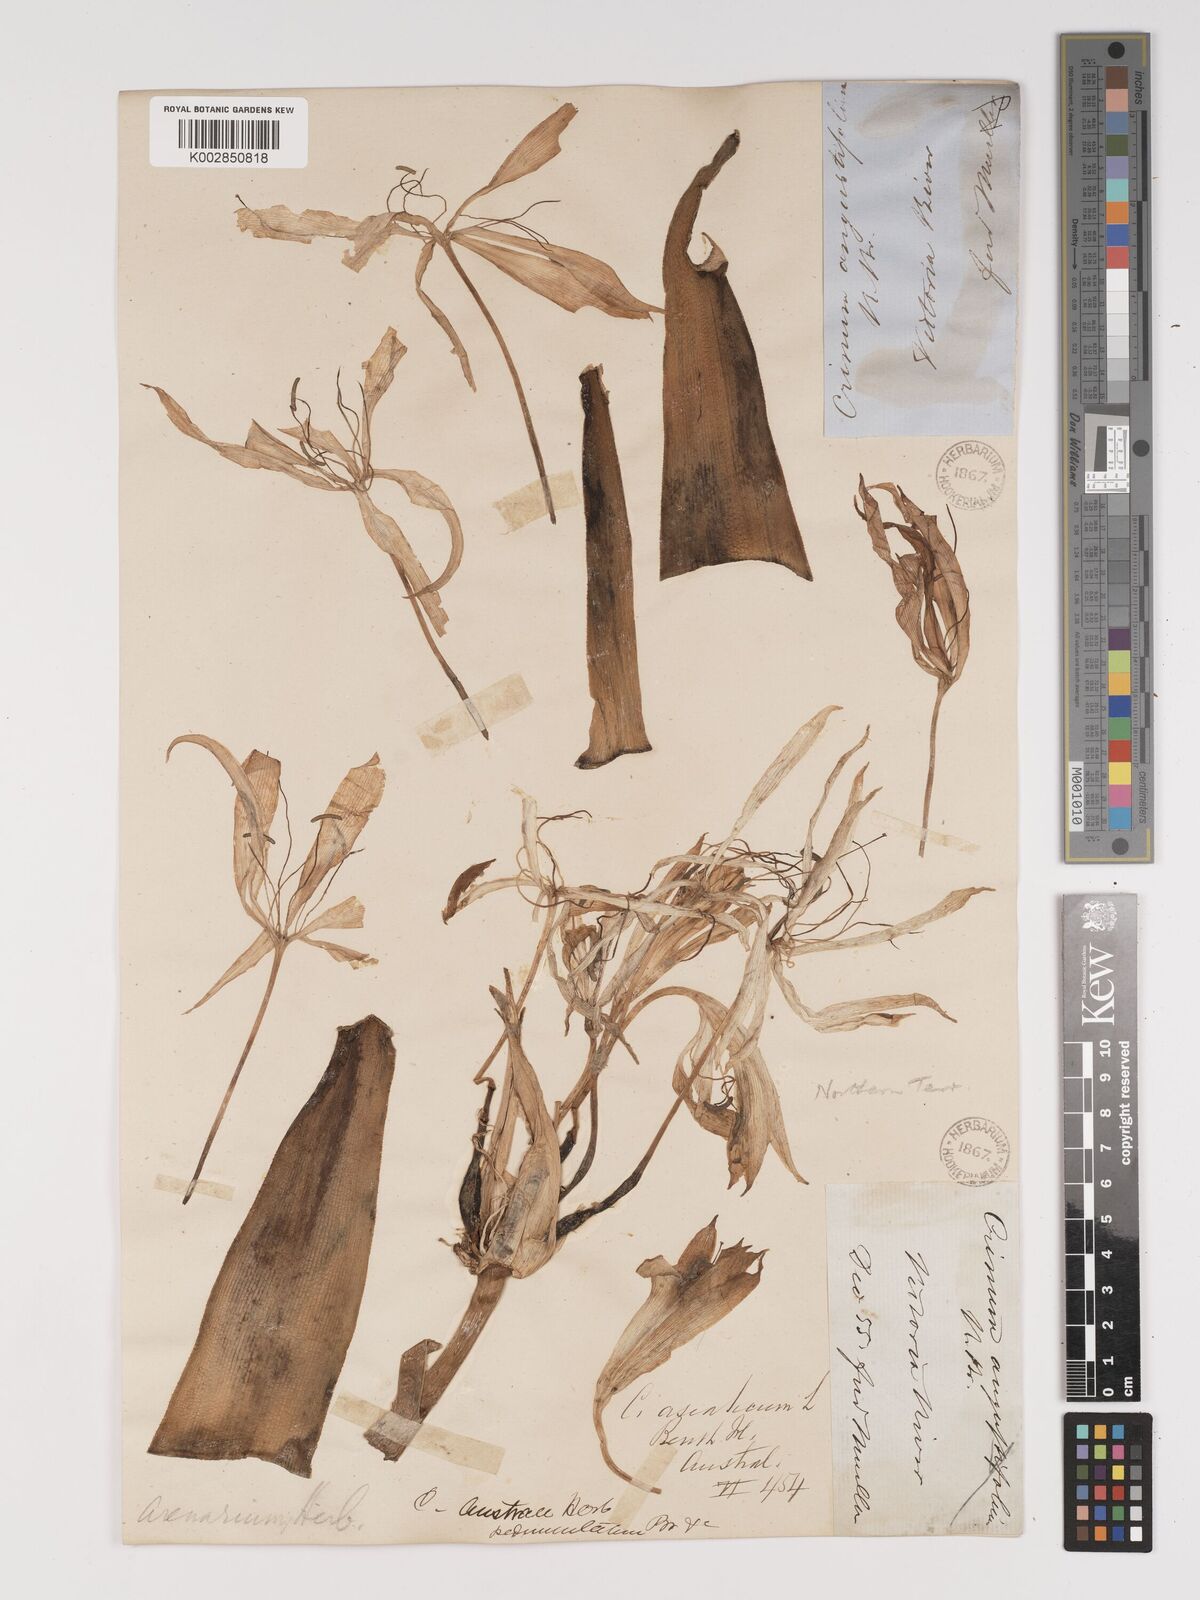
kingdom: Plantae
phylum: Tracheophyta
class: Liliopsida
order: Asparagales
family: Amaryllidaceae
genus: Crinum
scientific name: Crinum arenarium
